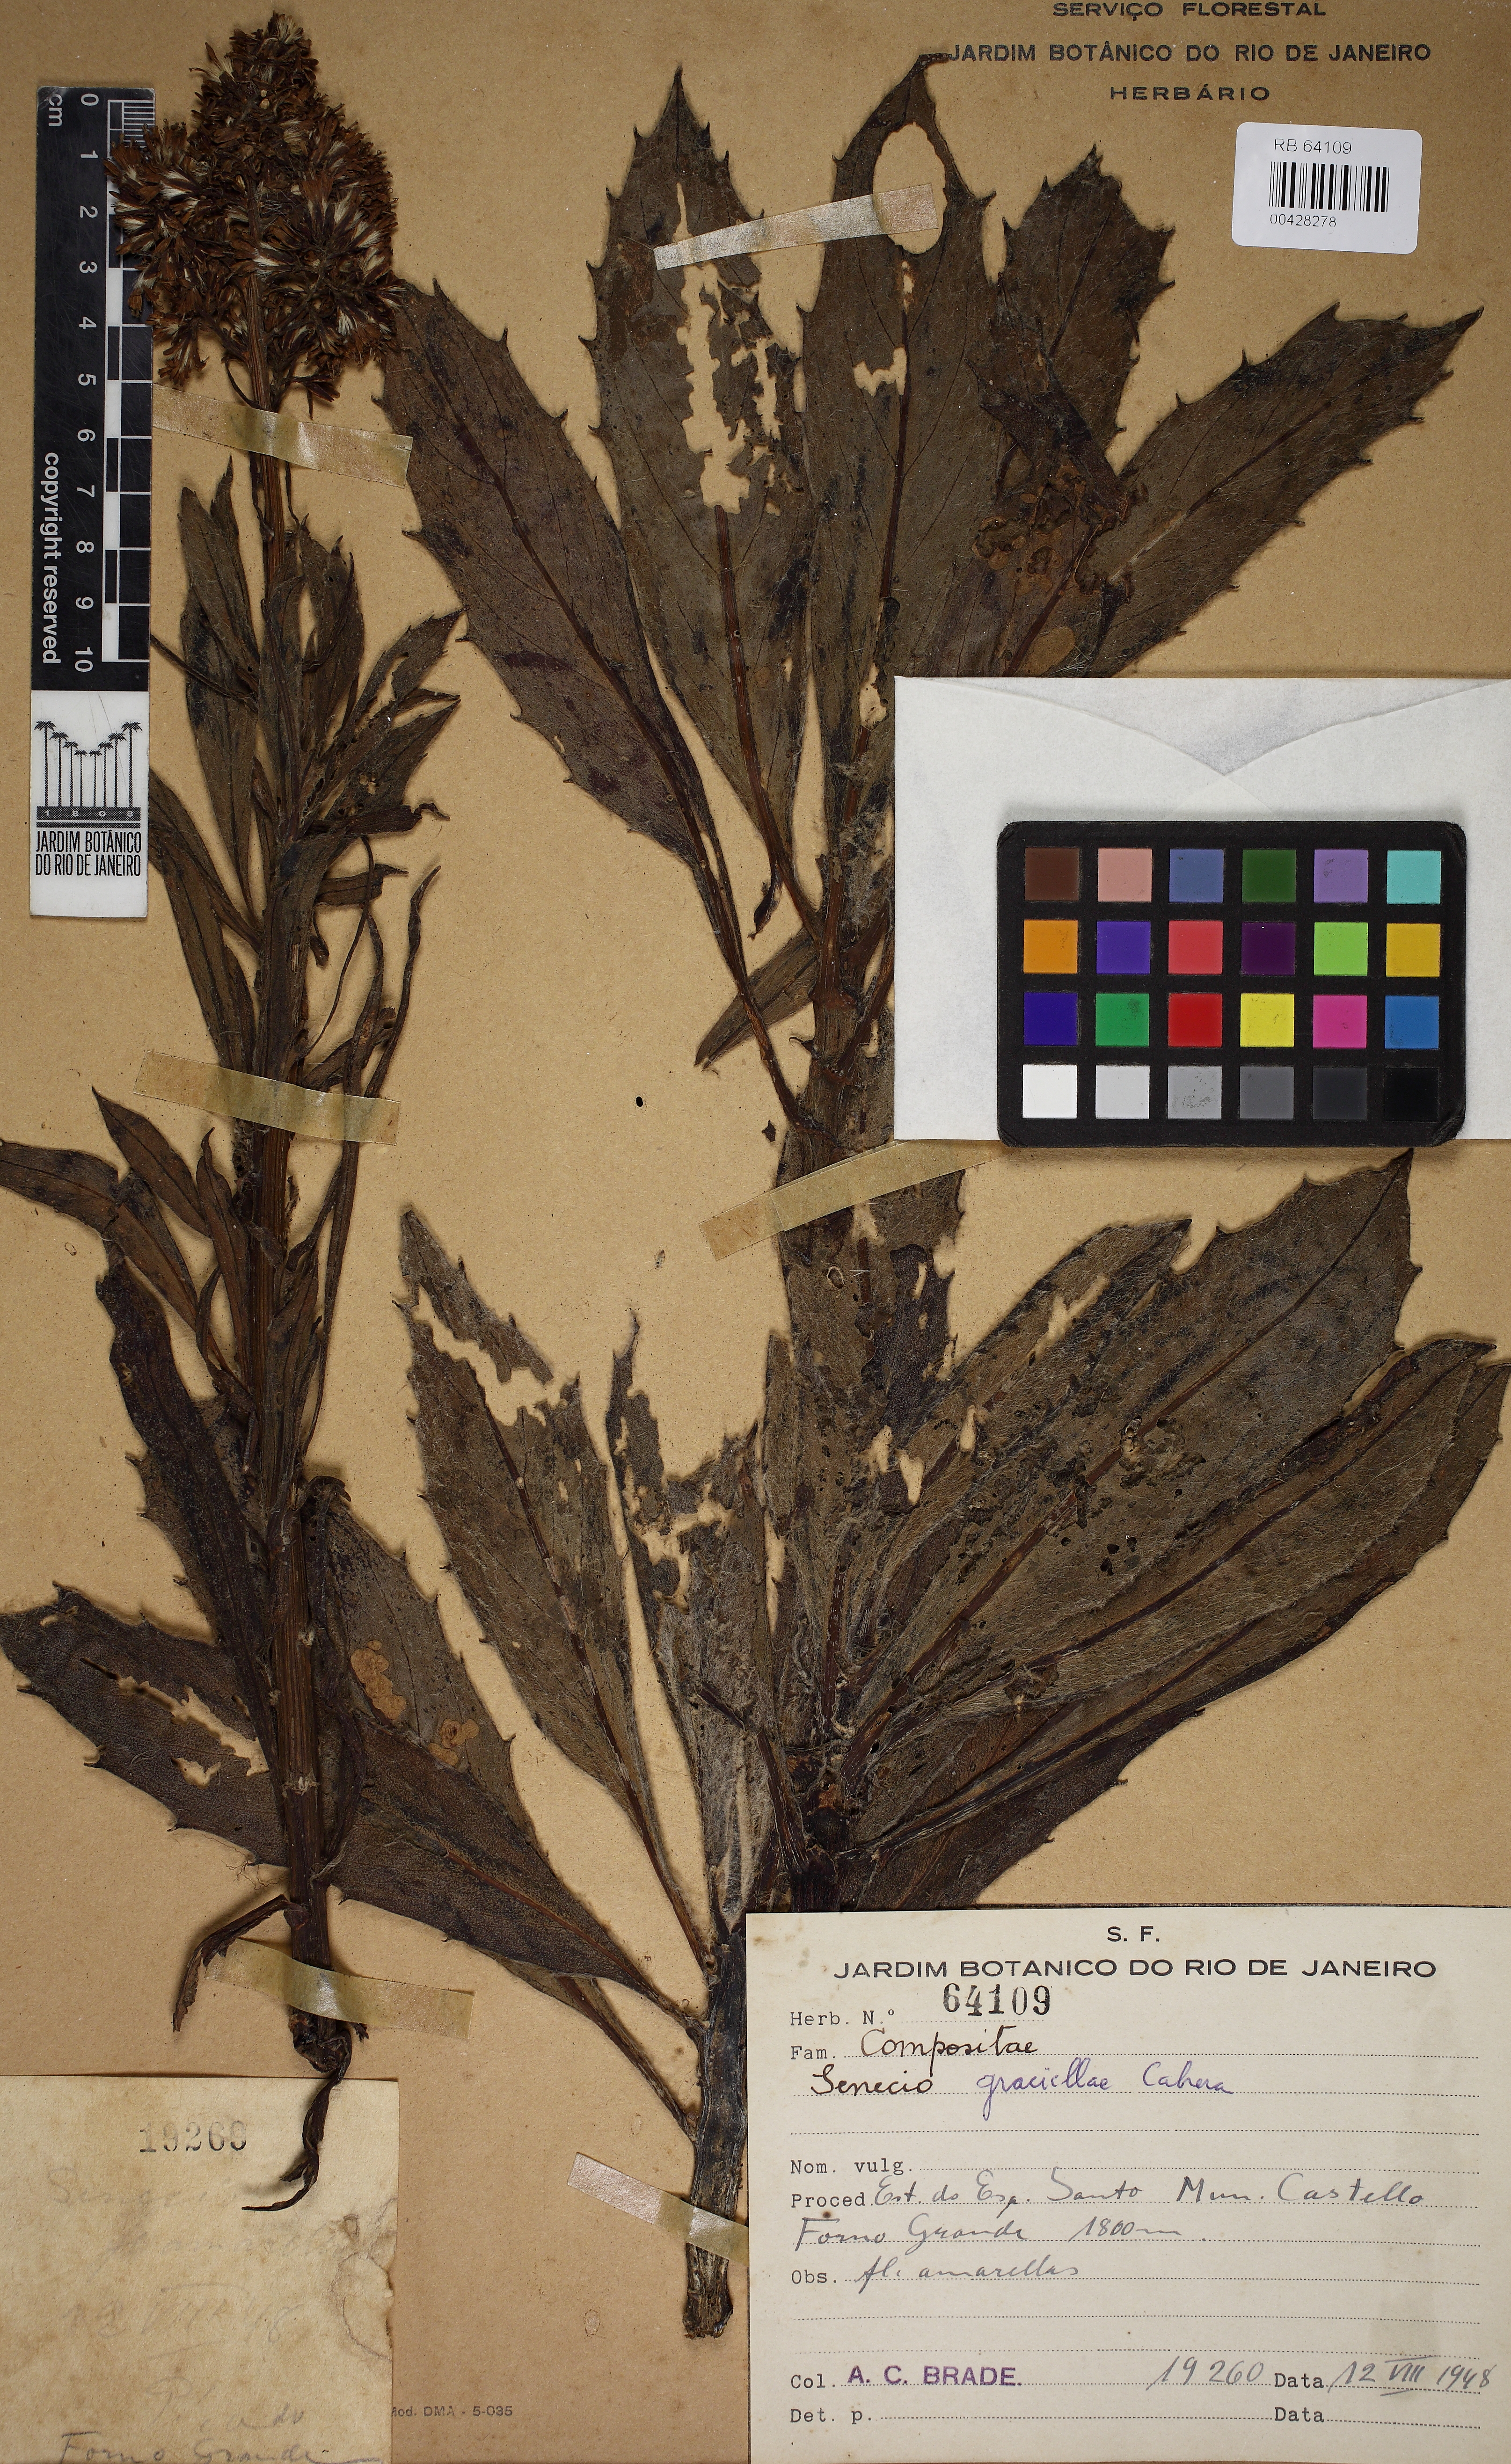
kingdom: Plantae
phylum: Tracheophyta
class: Magnoliopsida
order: Asterales
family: Asteraceae
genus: Senecio
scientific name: Senecio graciellae
